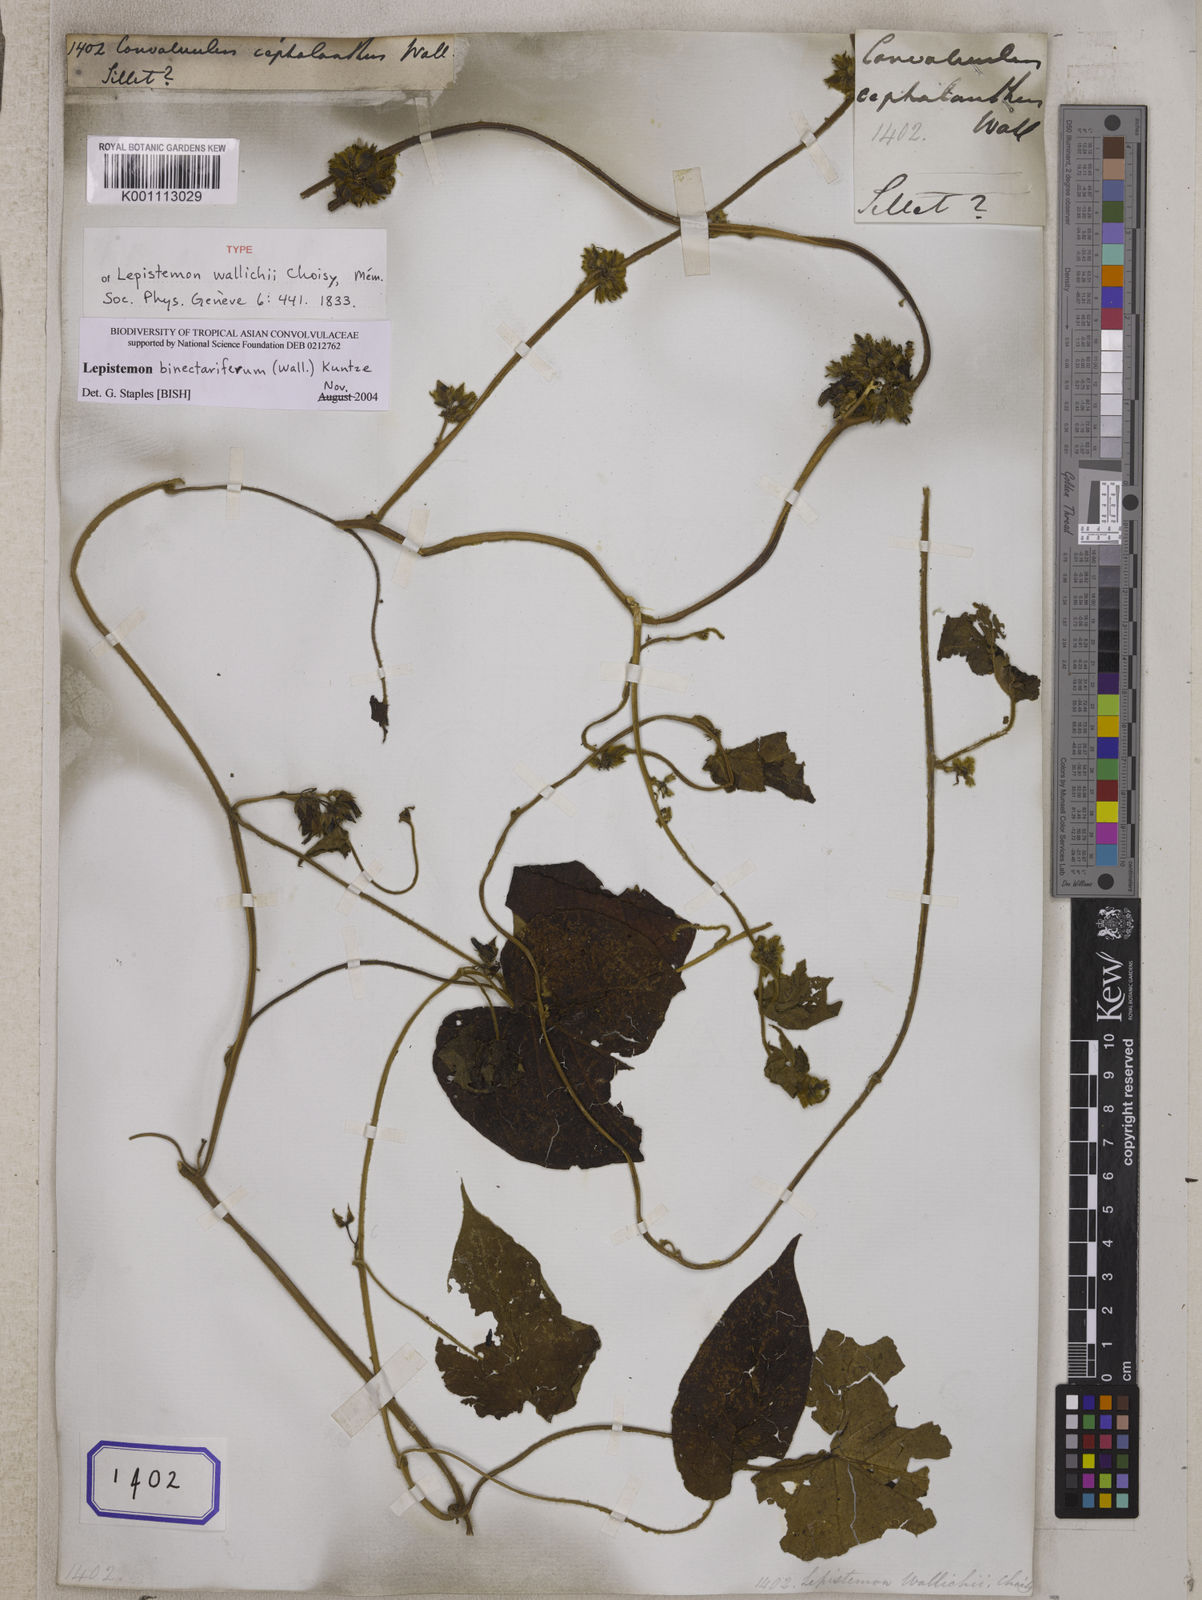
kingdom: Plantae
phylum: Tracheophyta
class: Magnoliopsida
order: Solanales
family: Convolvulaceae
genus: Lepistemon
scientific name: Lepistemon binectarifer
